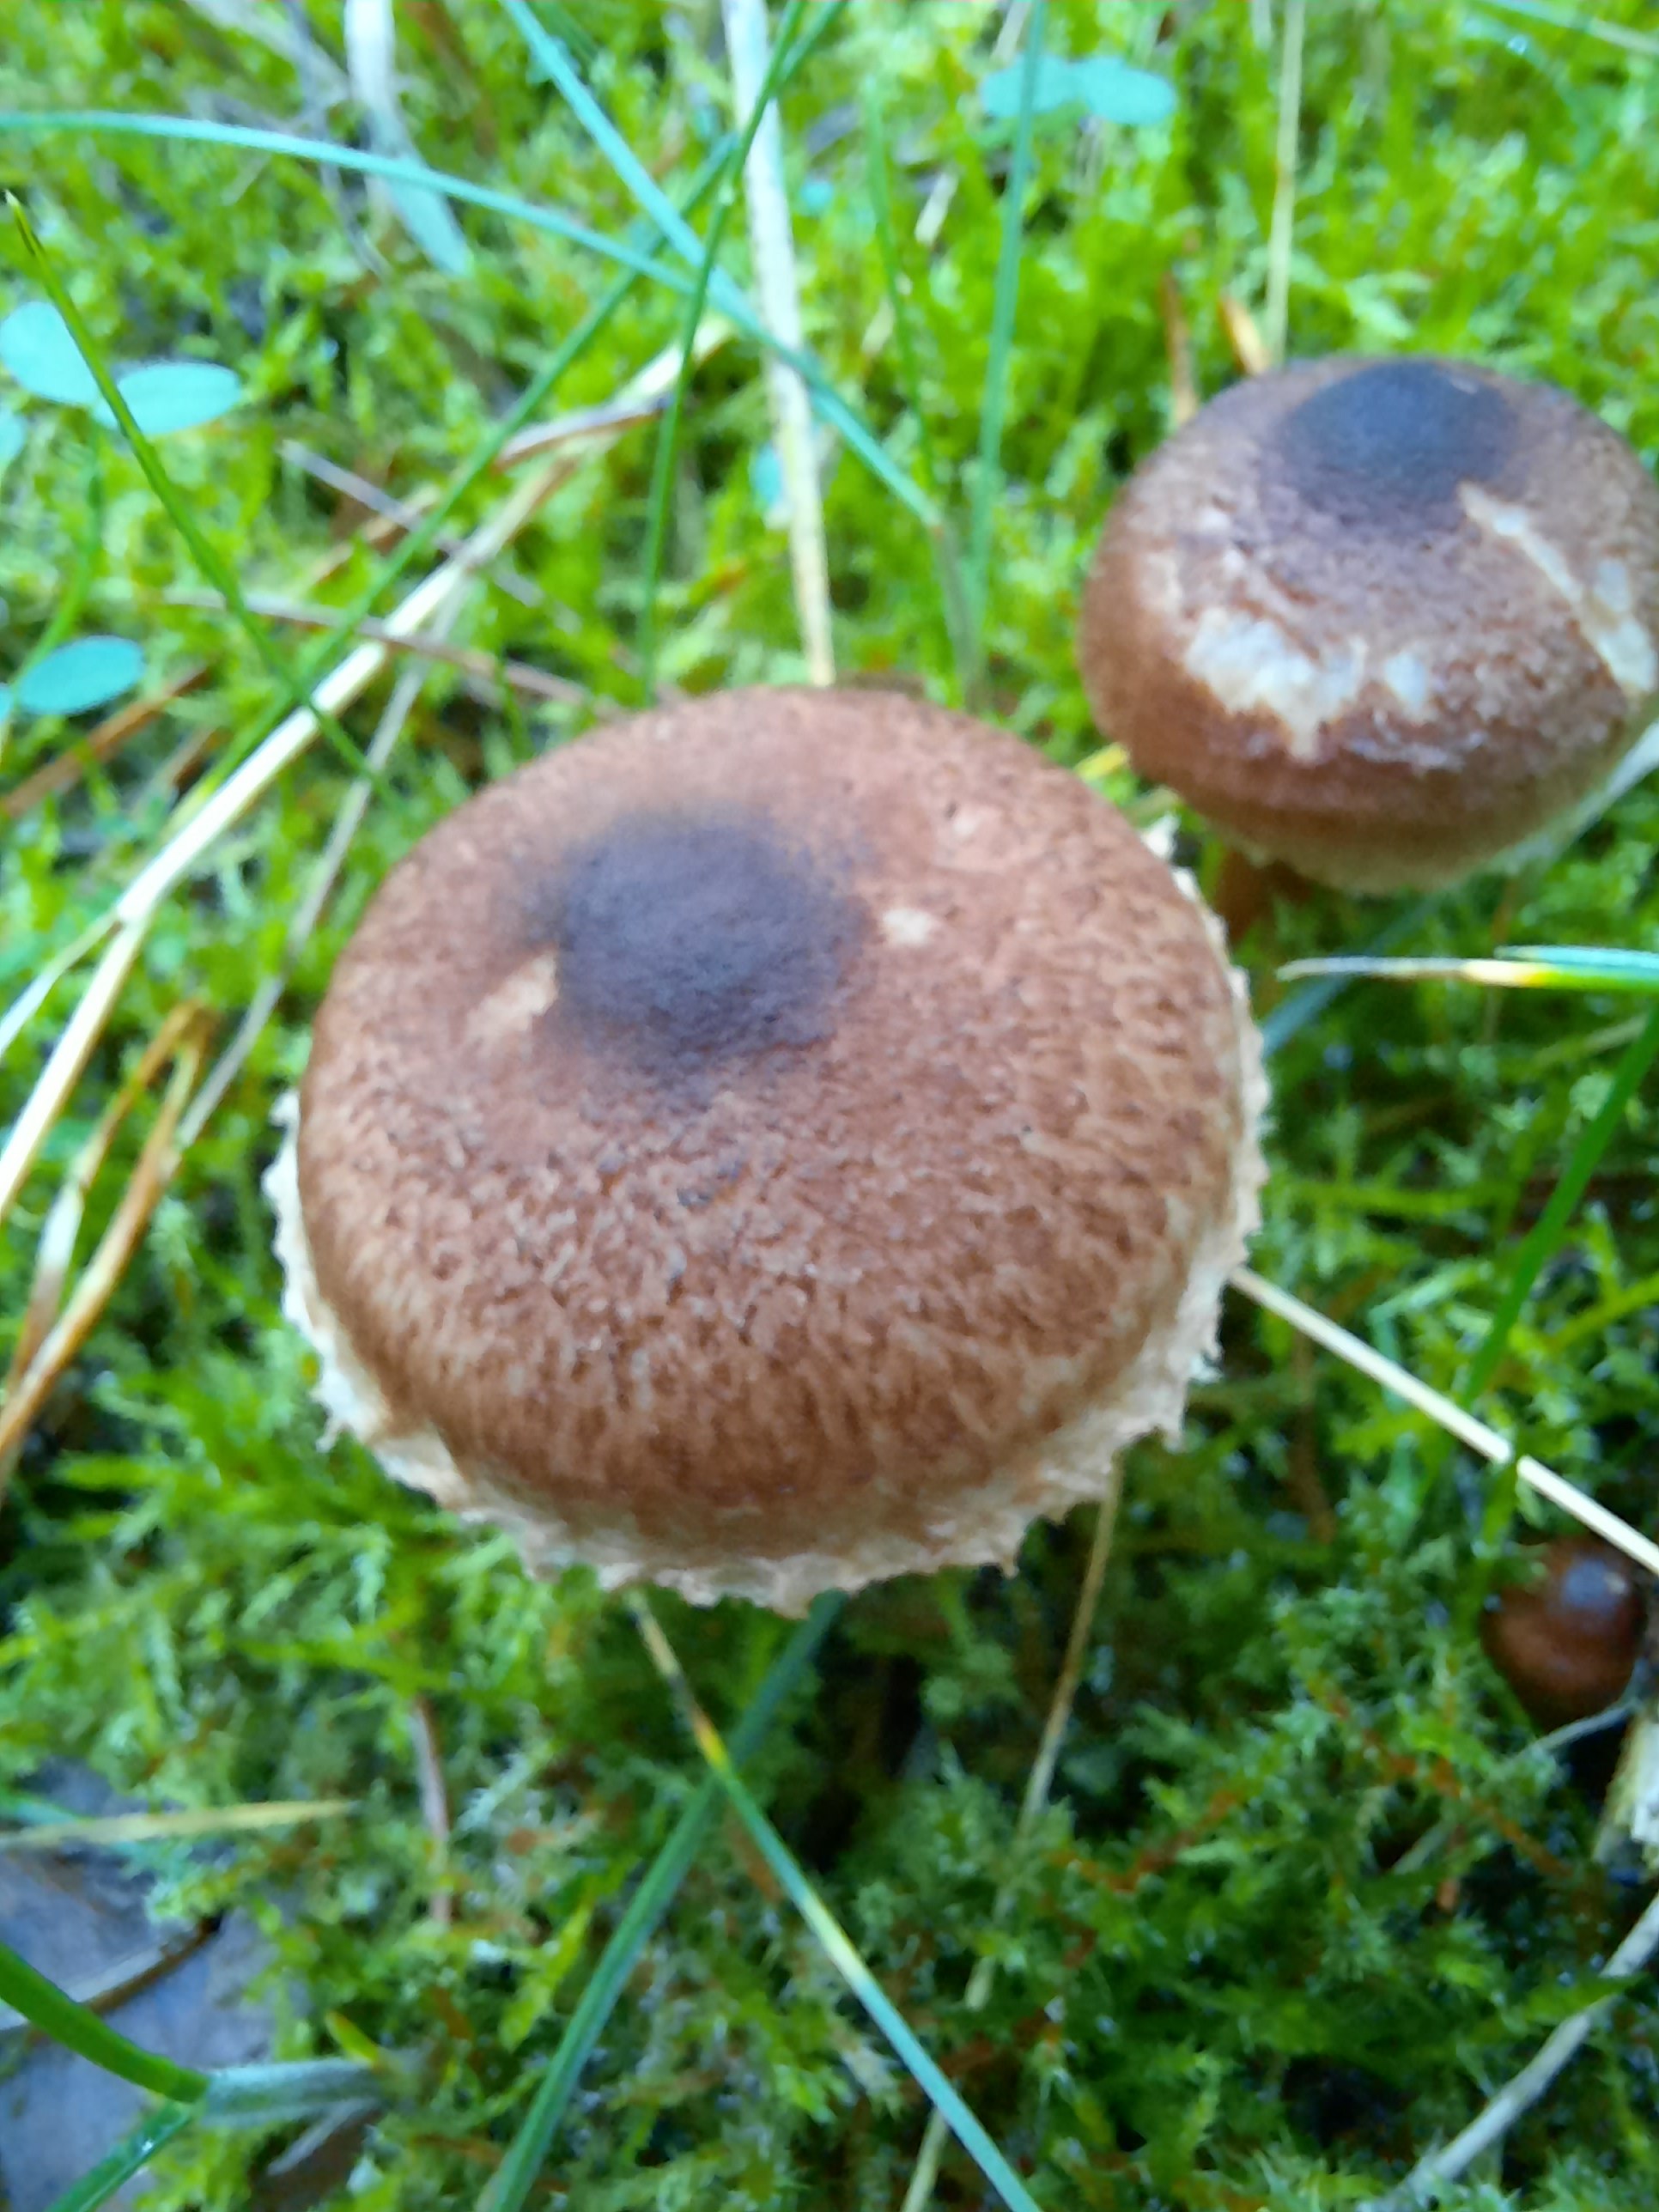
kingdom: Fungi
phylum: Basidiomycota
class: Agaricomycetes
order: Agaricales
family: Tricholomataceae
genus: Tricholoma
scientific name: Tricholoma vaccinum
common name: ko-ridderhat
